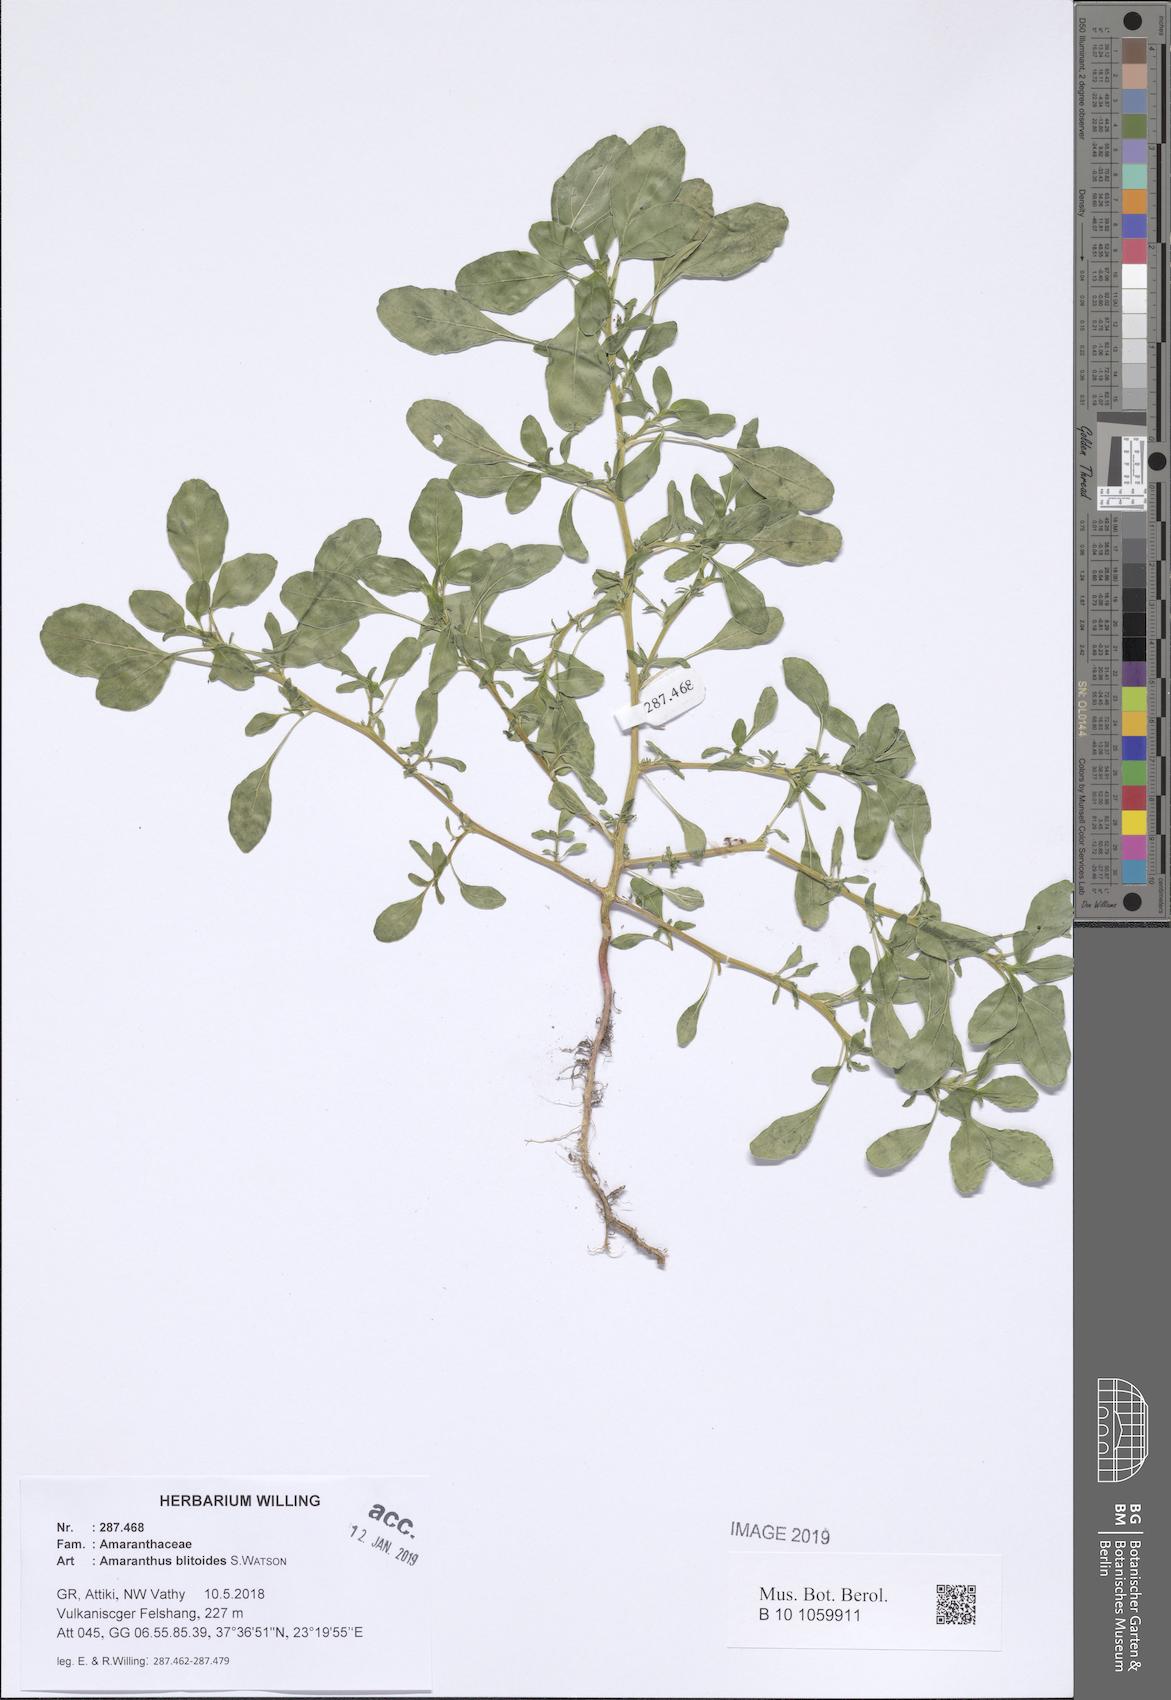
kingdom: Plantae
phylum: Tracheophyta
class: Magnoliopsida
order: Caryophyllales
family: Amaranthaceae
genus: Amaranthus
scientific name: Amaranthus blitoides
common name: Prostrate pigweed
